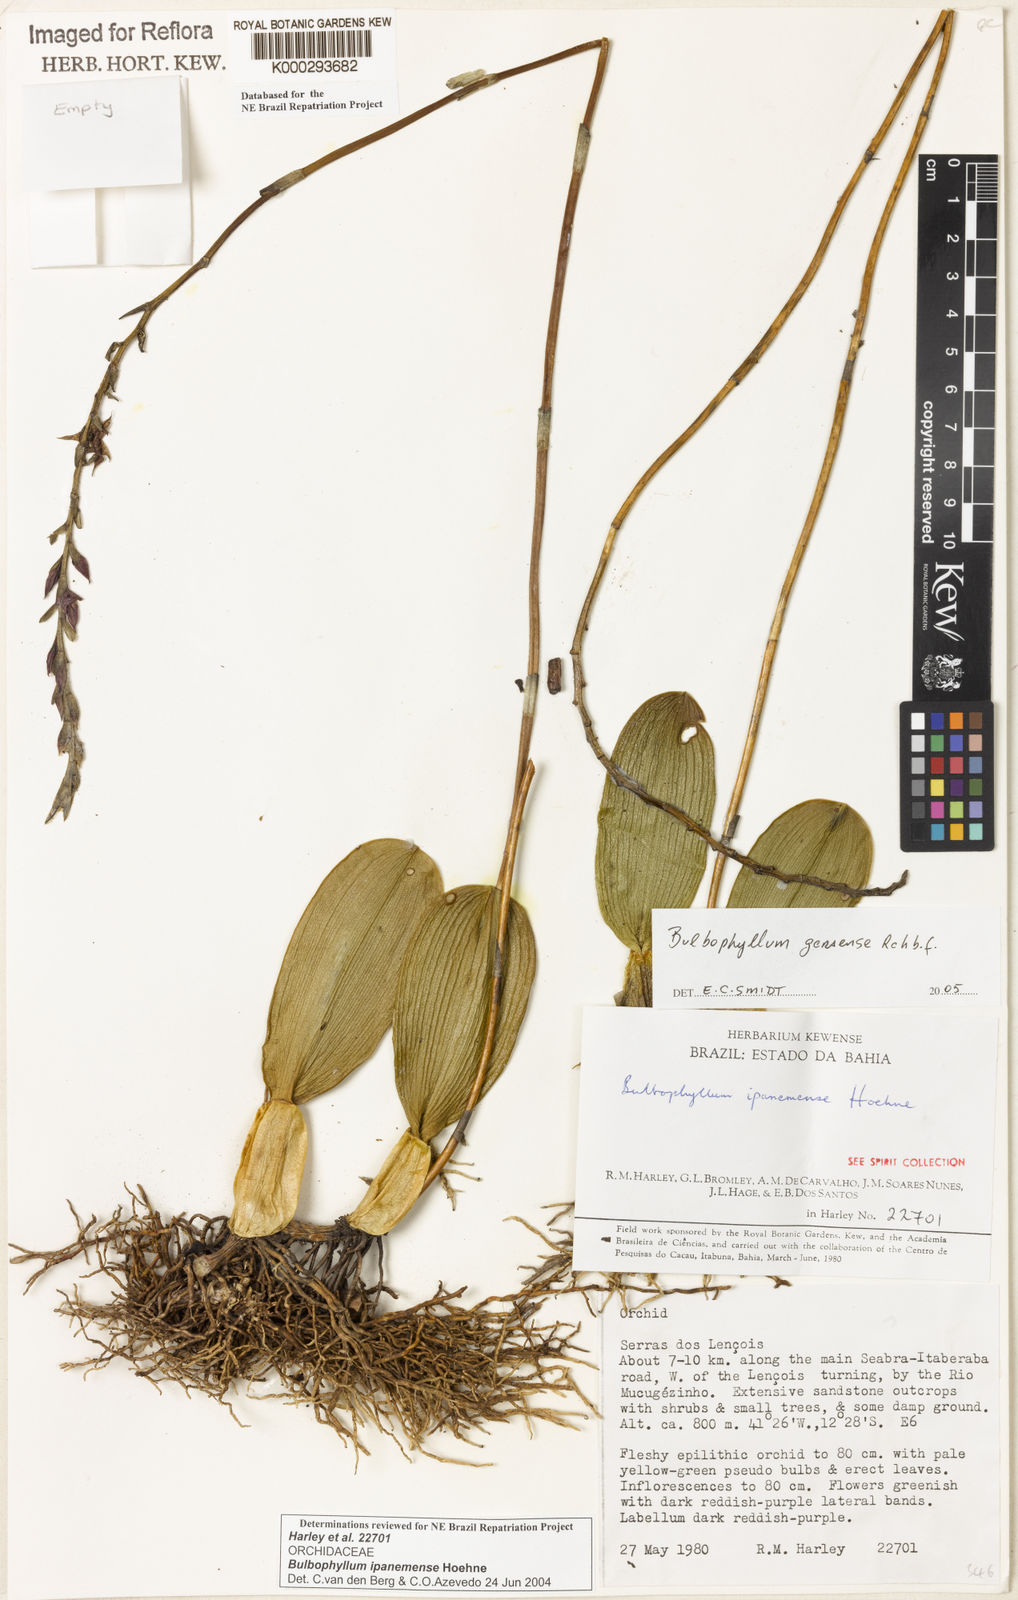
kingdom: Plantae
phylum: Tracheophyta
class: Liliopsida
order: Asparagales
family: Orchidaceae
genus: Bulbophyllum
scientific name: Bulbophyllum ipanemense
